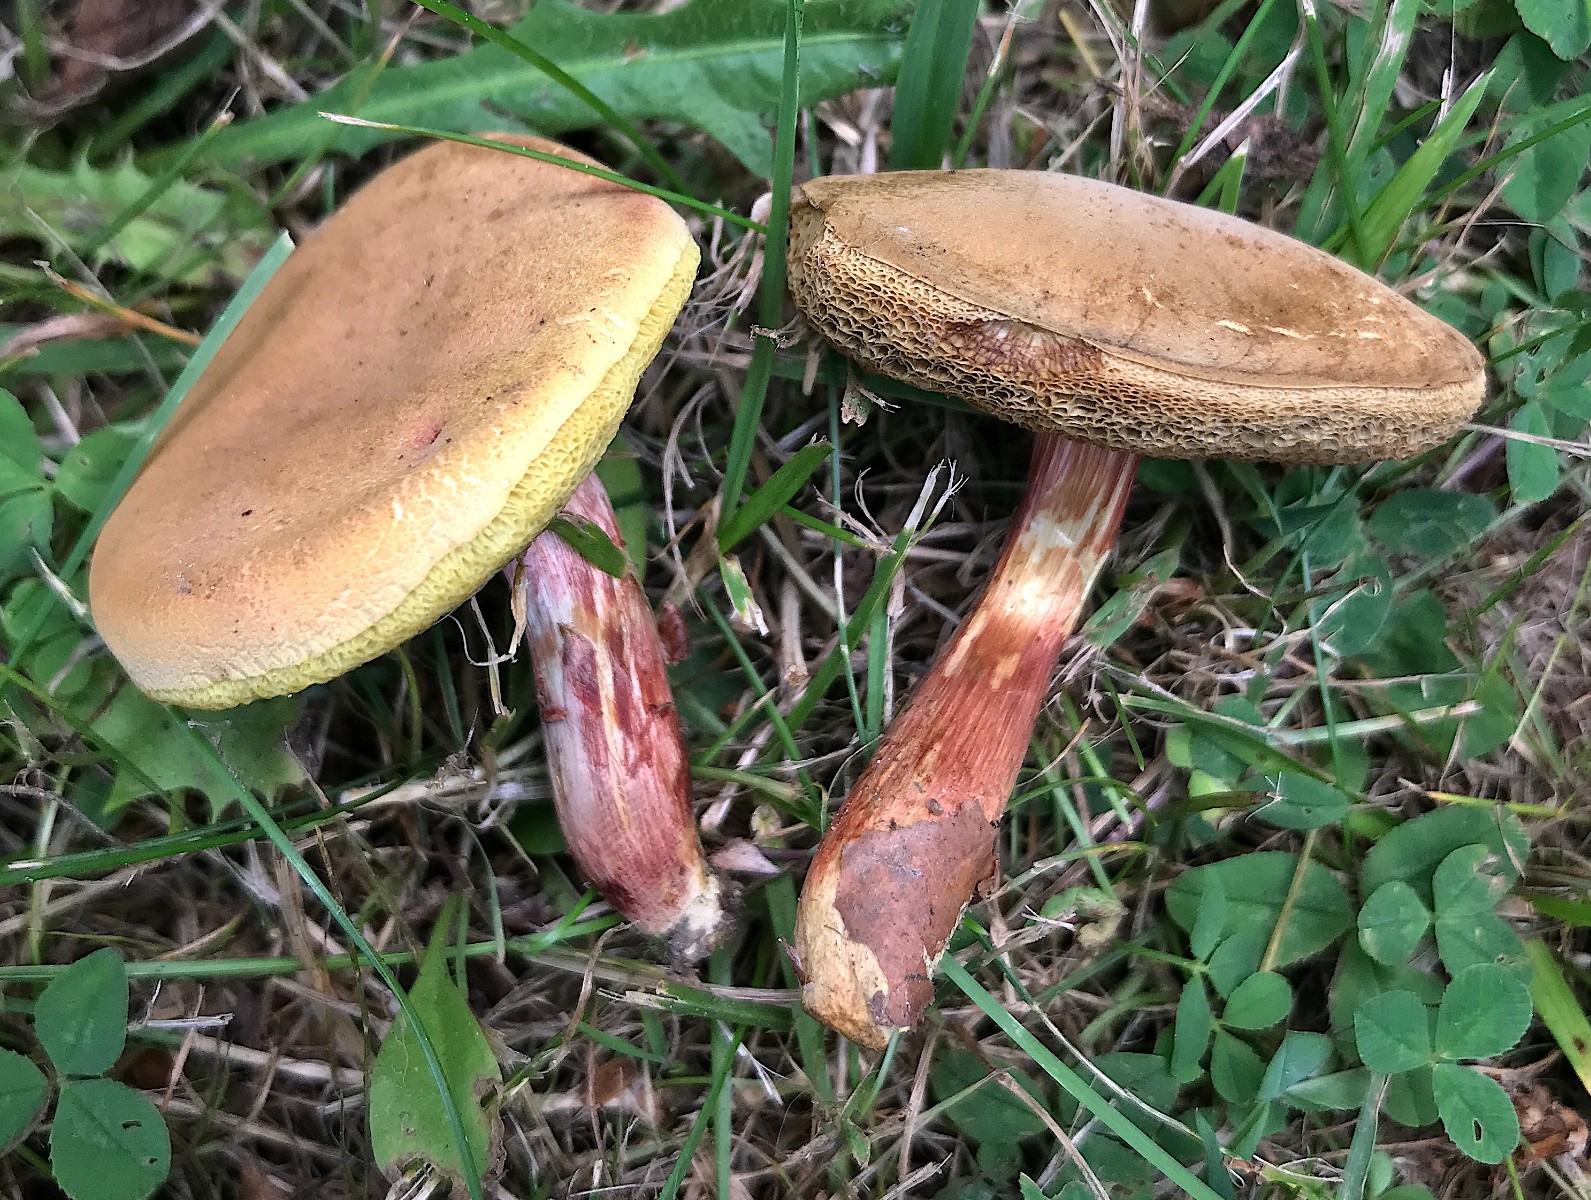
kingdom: Fungi
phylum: Basidiomycota
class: Agaricomycetes
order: Boletales
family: Boletaceae
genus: Xerocomellus
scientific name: Xerocomellus pruinatus
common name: dugget rørhat
